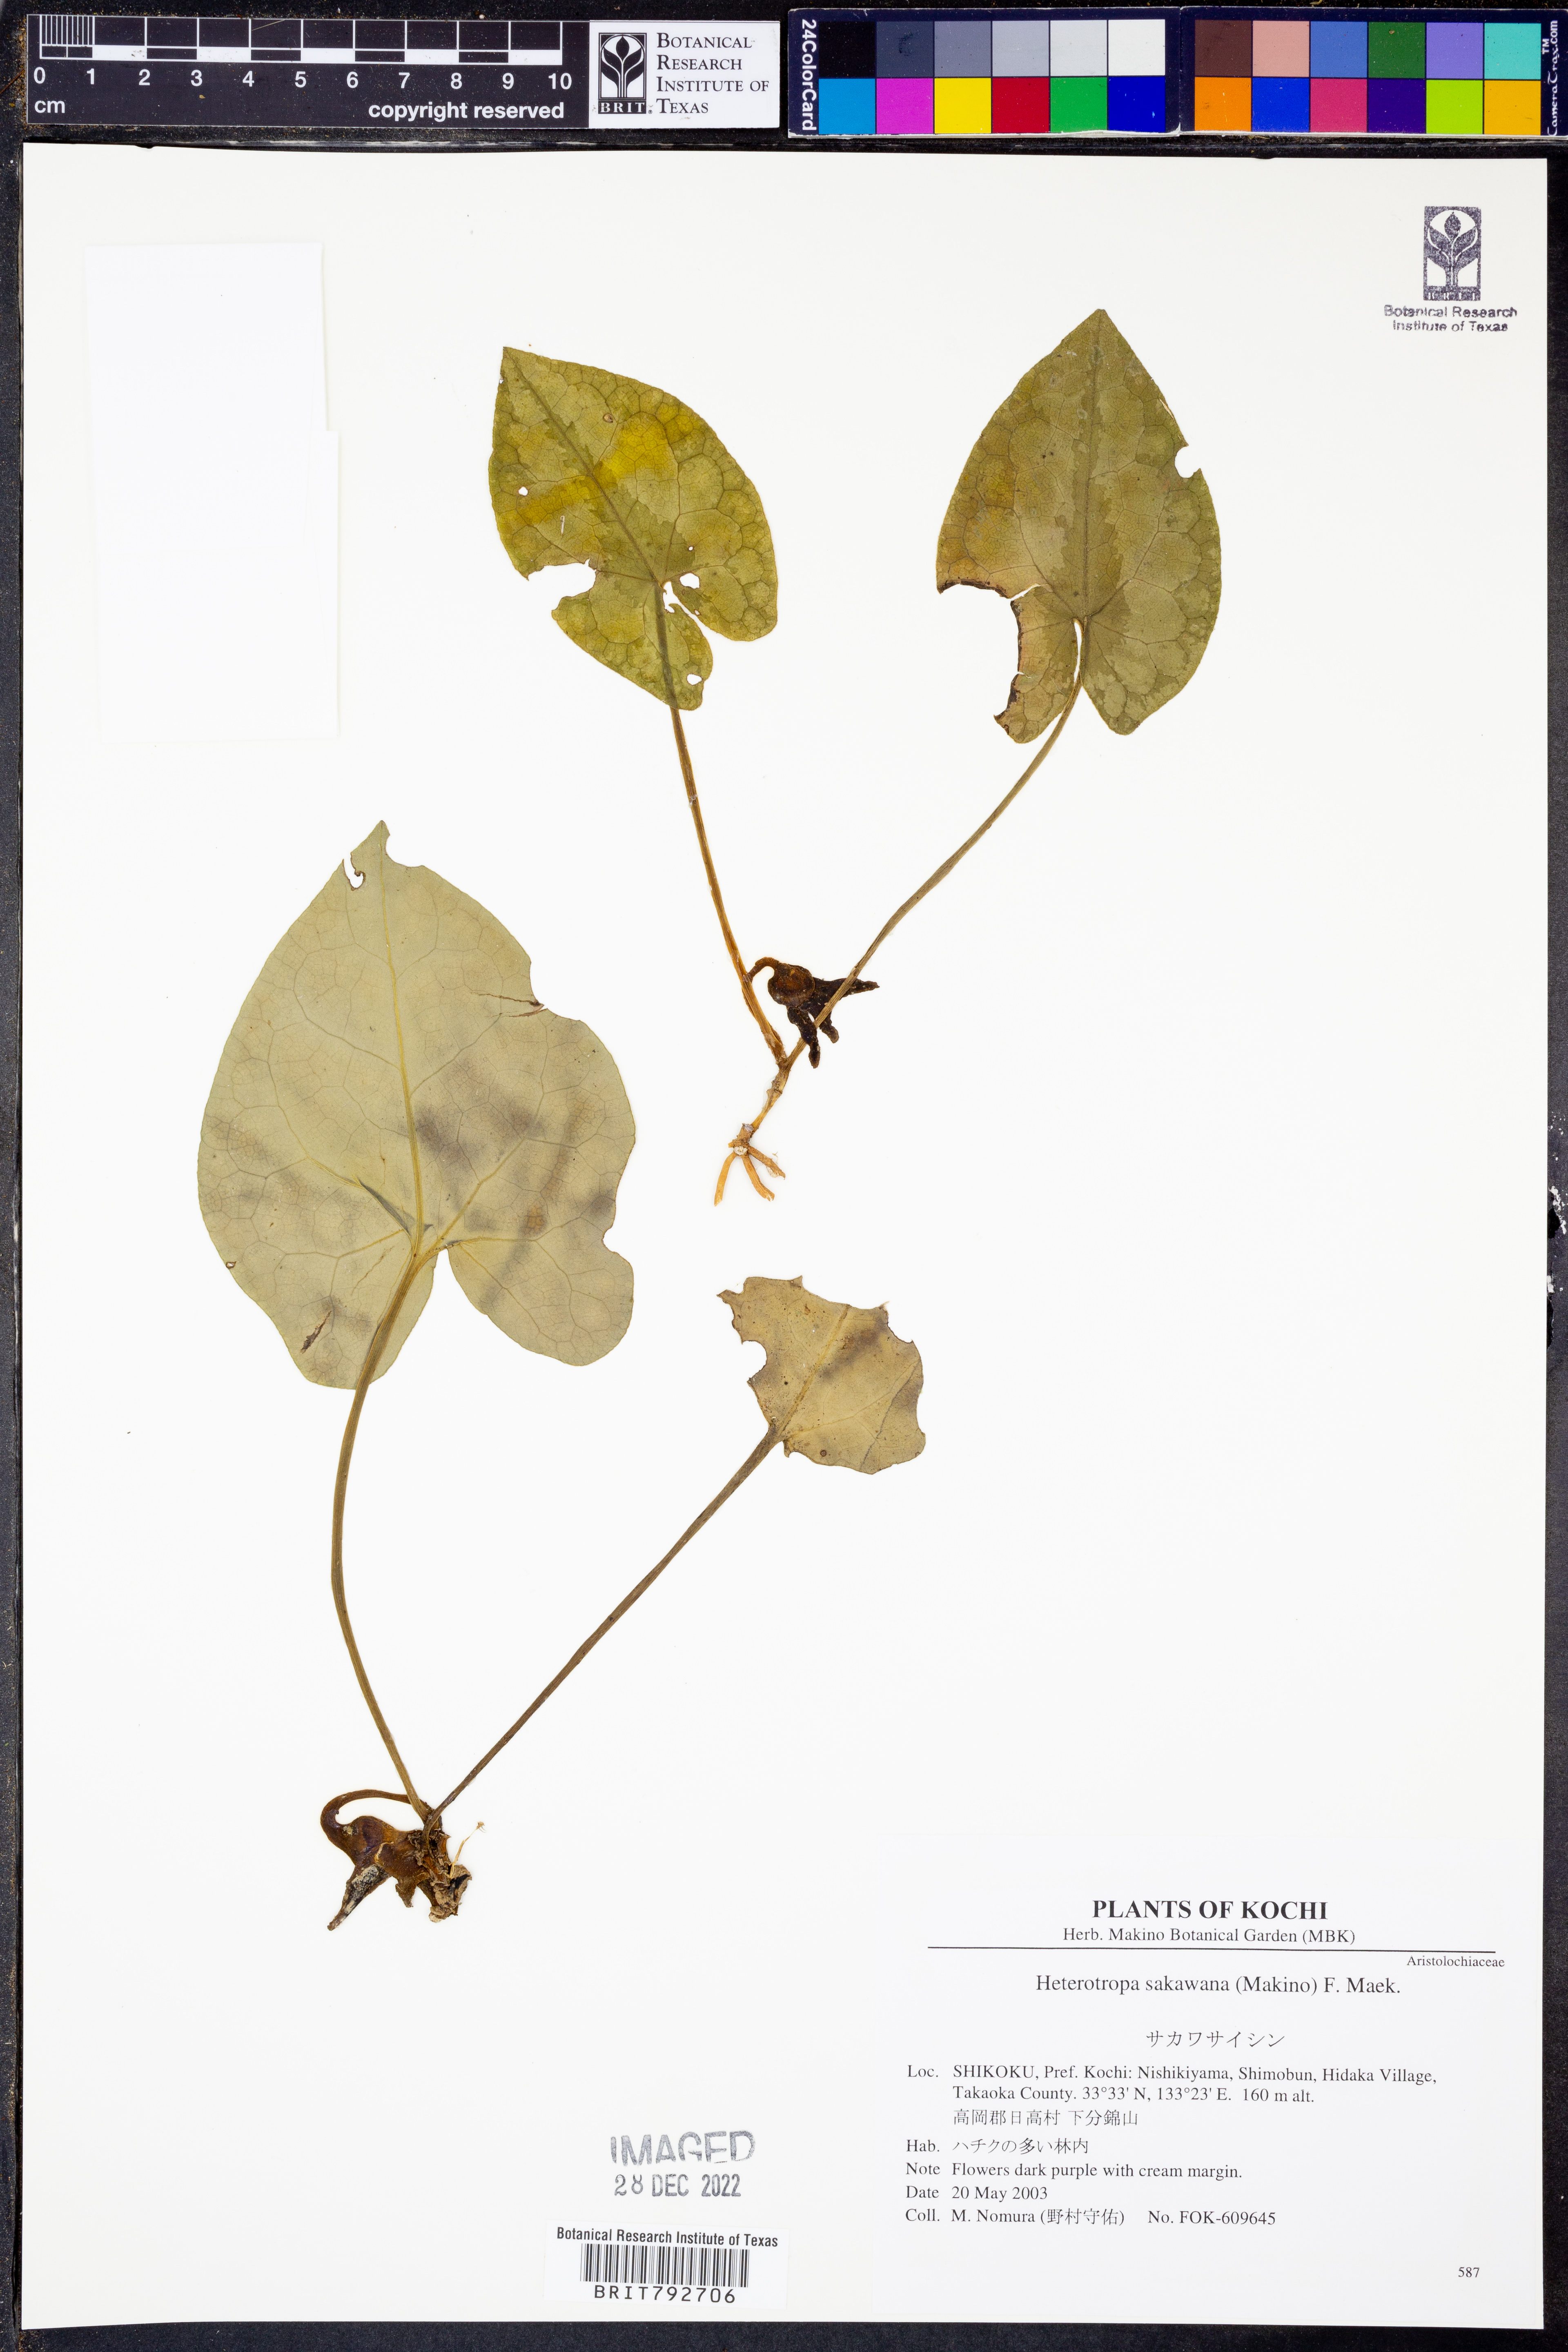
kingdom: Plantae
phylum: Tracheophyta
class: Magnoliopsida
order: Piperales
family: Aristolochiaceae
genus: Asarum
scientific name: Asarum sakawanum
